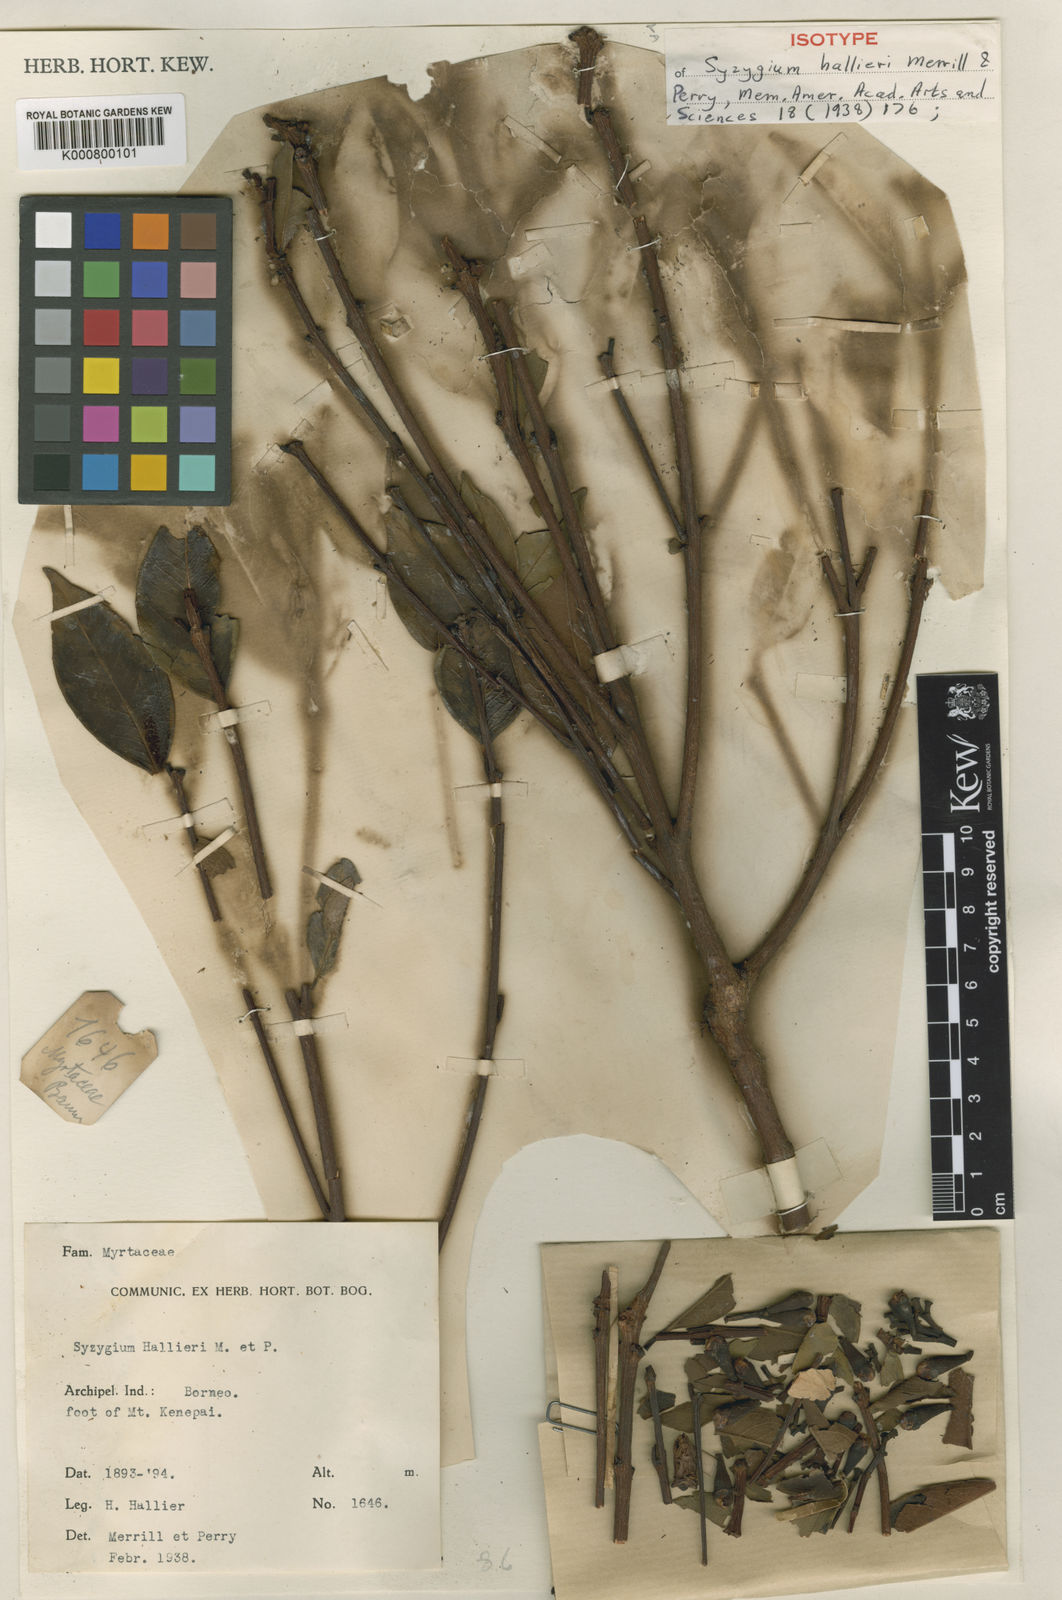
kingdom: Plantae
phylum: Tracheophyta
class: Magnoliopsida
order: Myrtales
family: Myrtaceae
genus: Syzygium
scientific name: Syzygium durifolium
